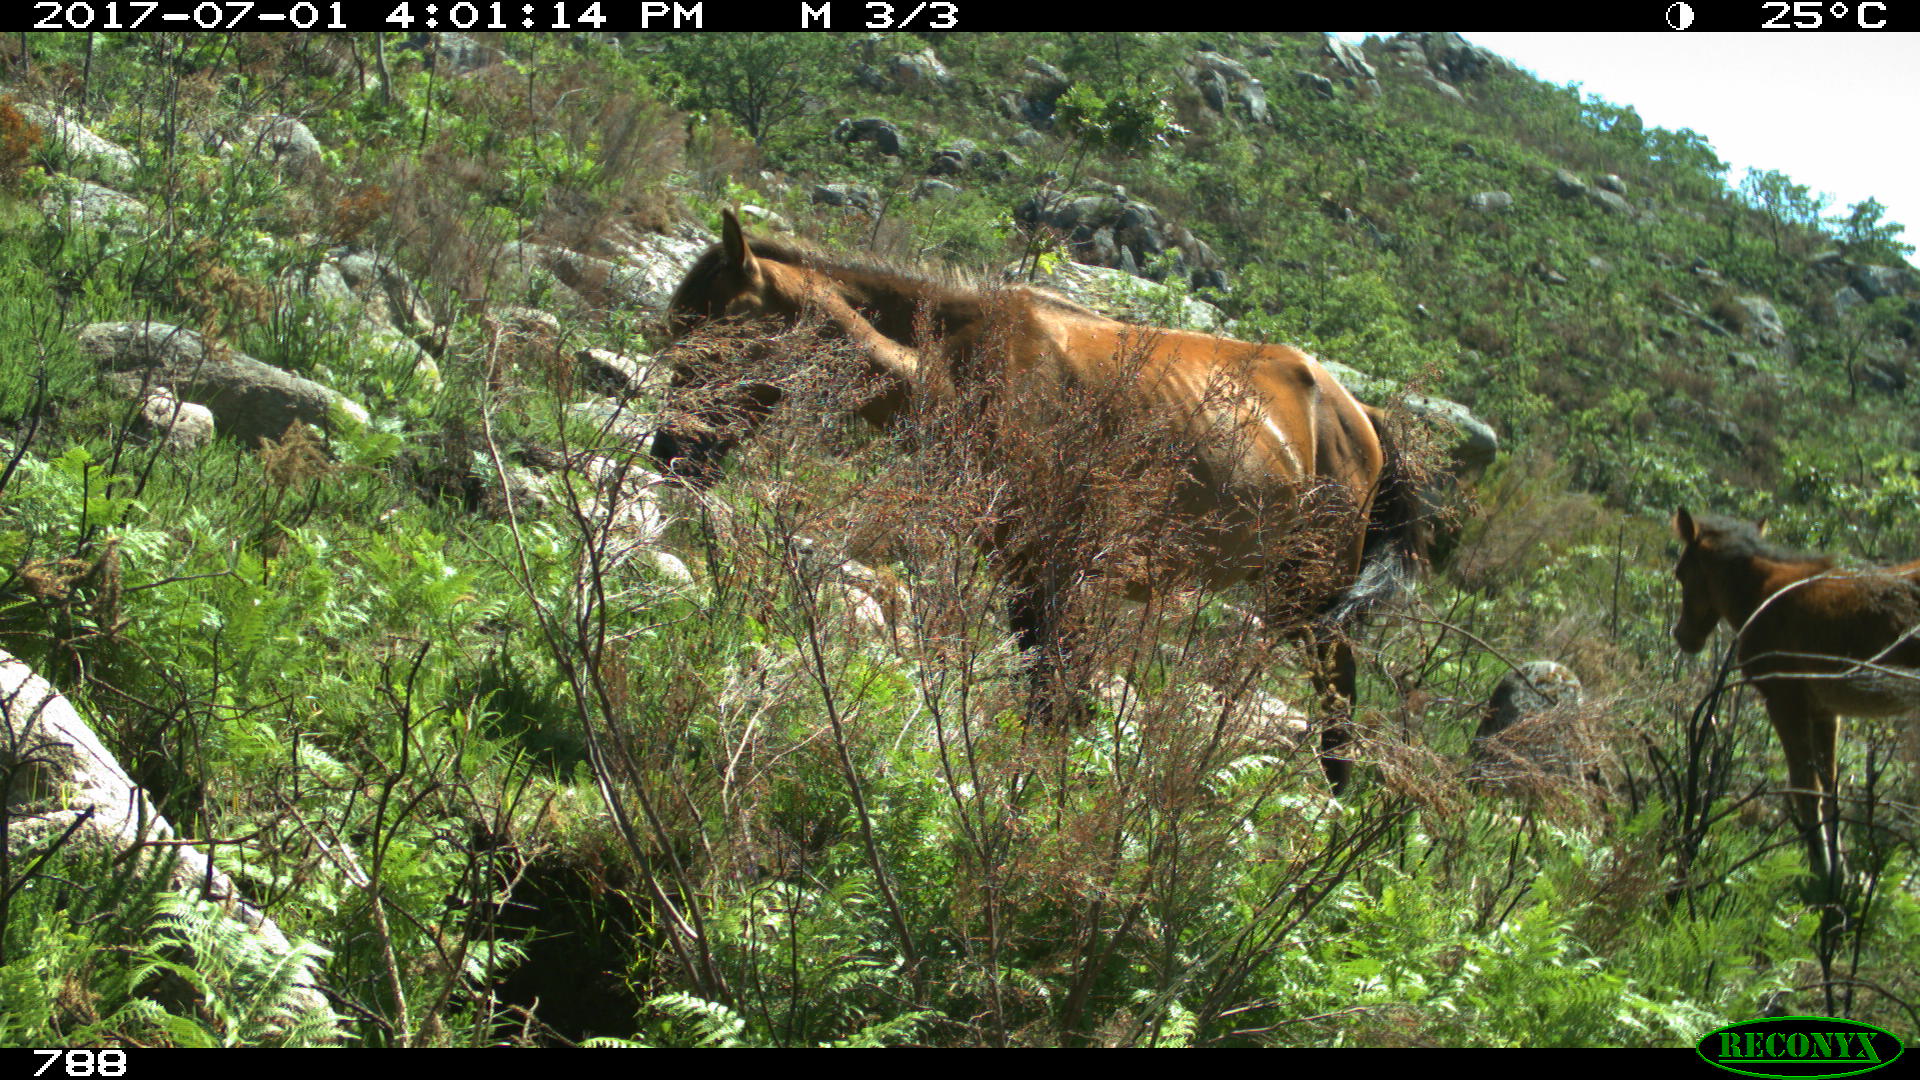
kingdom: Animalia
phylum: Chordata
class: Mammalia
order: Perissodactyla
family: Equidae
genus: Equus
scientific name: Equus caballus
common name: Horse
